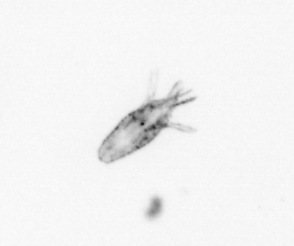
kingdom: Animalia
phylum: Arthropoda
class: Maxillopoda
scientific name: Maxillopoda
